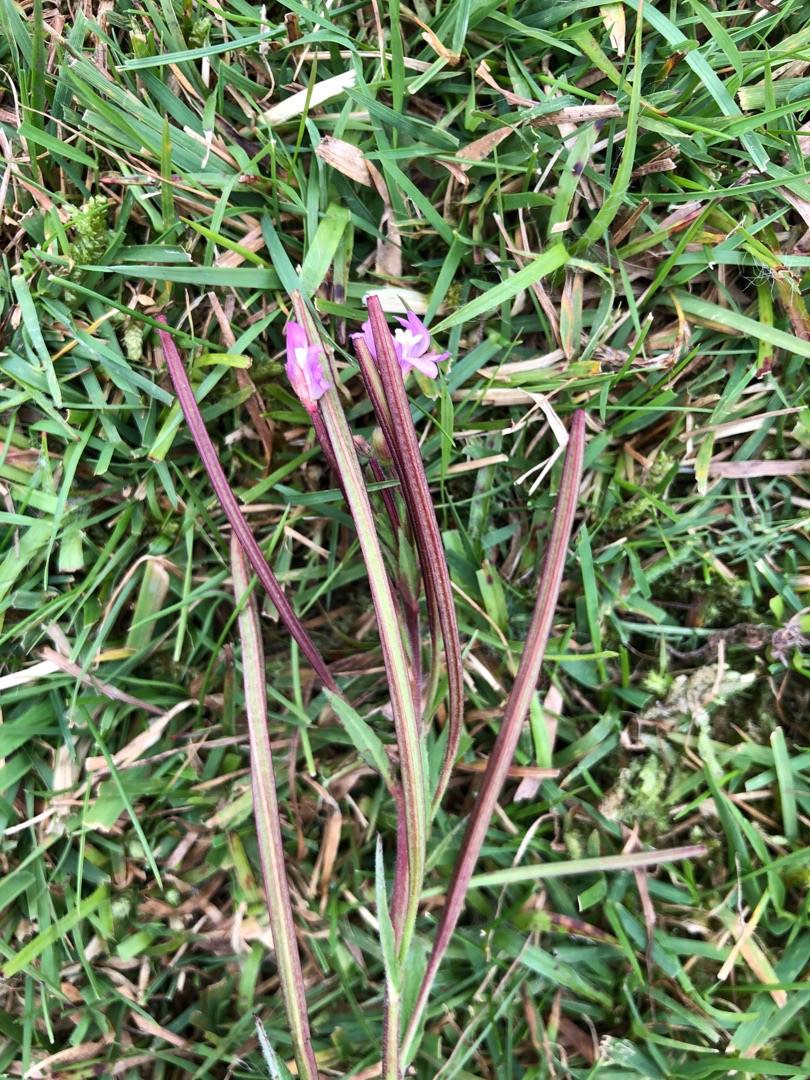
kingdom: Plantae
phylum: Tracheophyta
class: Magnoliopsida
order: Myrtales
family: Onagraceae
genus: Epilobium
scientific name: Epilobium parviflorum
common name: Dunet dueurt
